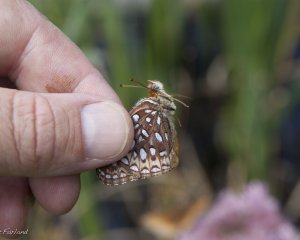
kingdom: Animalia
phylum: Arthropoda
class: Insecta
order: Lepidoptera
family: Nymphalidae
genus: Speyeria
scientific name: Speyeria atlantis
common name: Atlantis Fritillary
